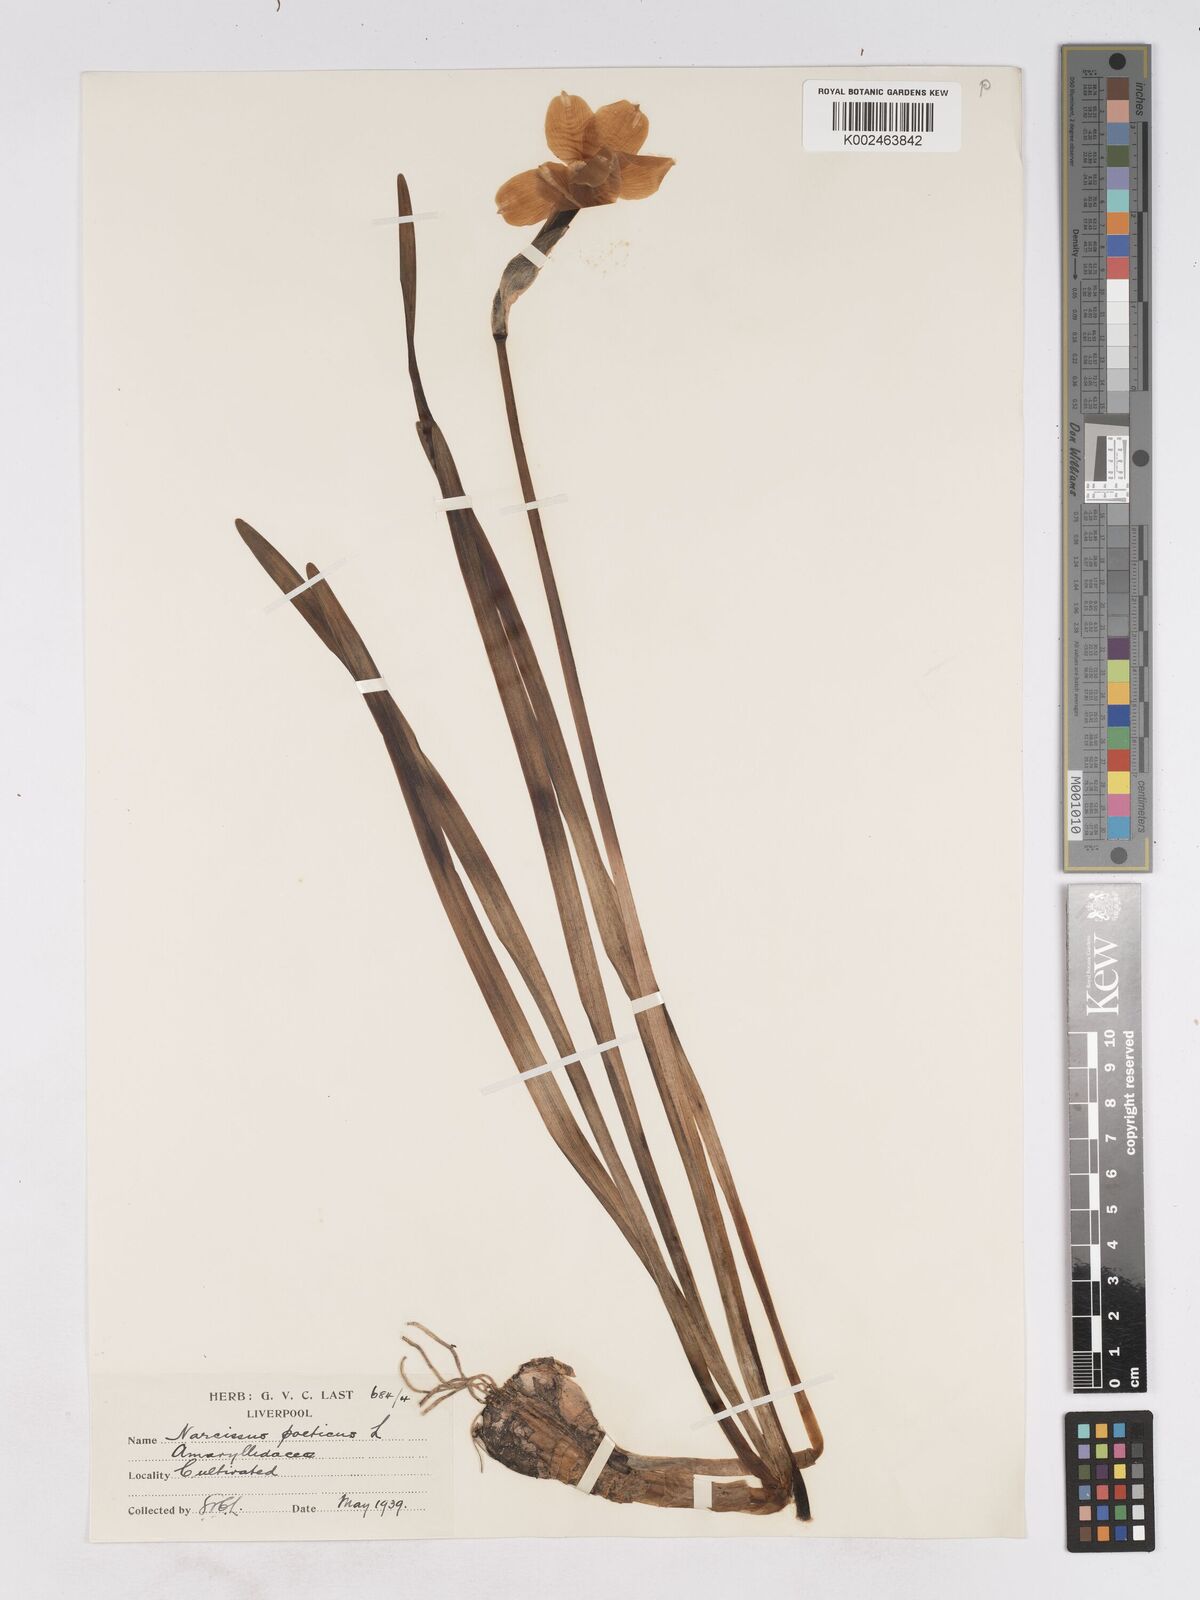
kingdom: Plantae
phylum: Tracheophyta
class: Liliopsida
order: Asparagales
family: Amaryllidaceae
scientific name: Amaryllidaceae
